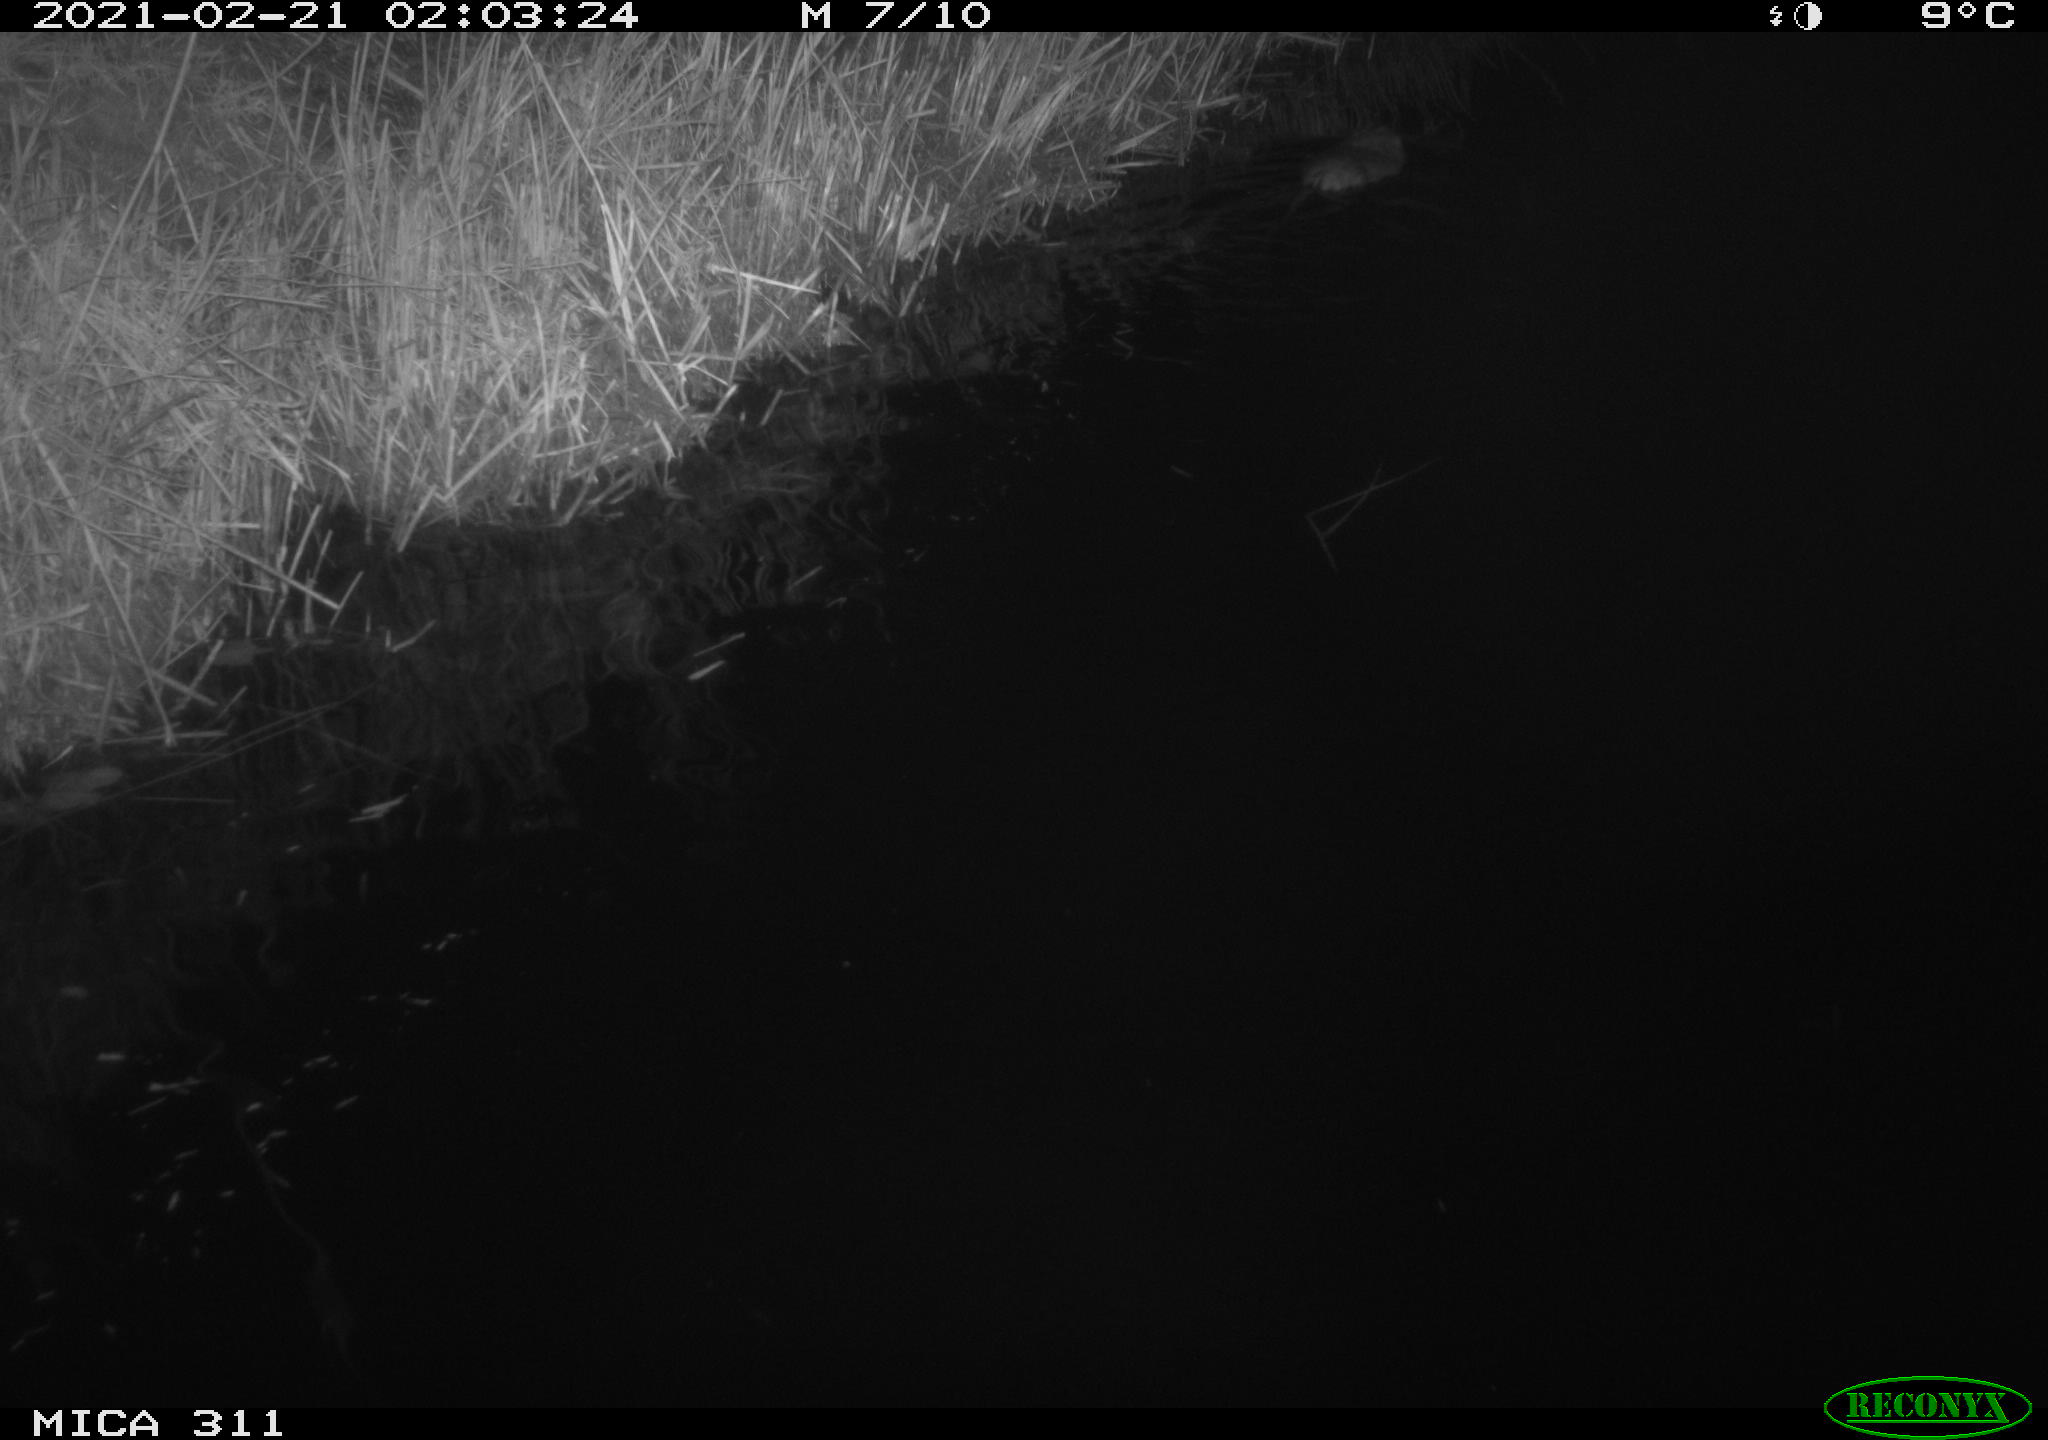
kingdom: Animalia
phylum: Chordata
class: Mammalia
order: Rodentia
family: Cricetidae
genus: Ondatra
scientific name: Ondatra zibethicus
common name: Muskrat
